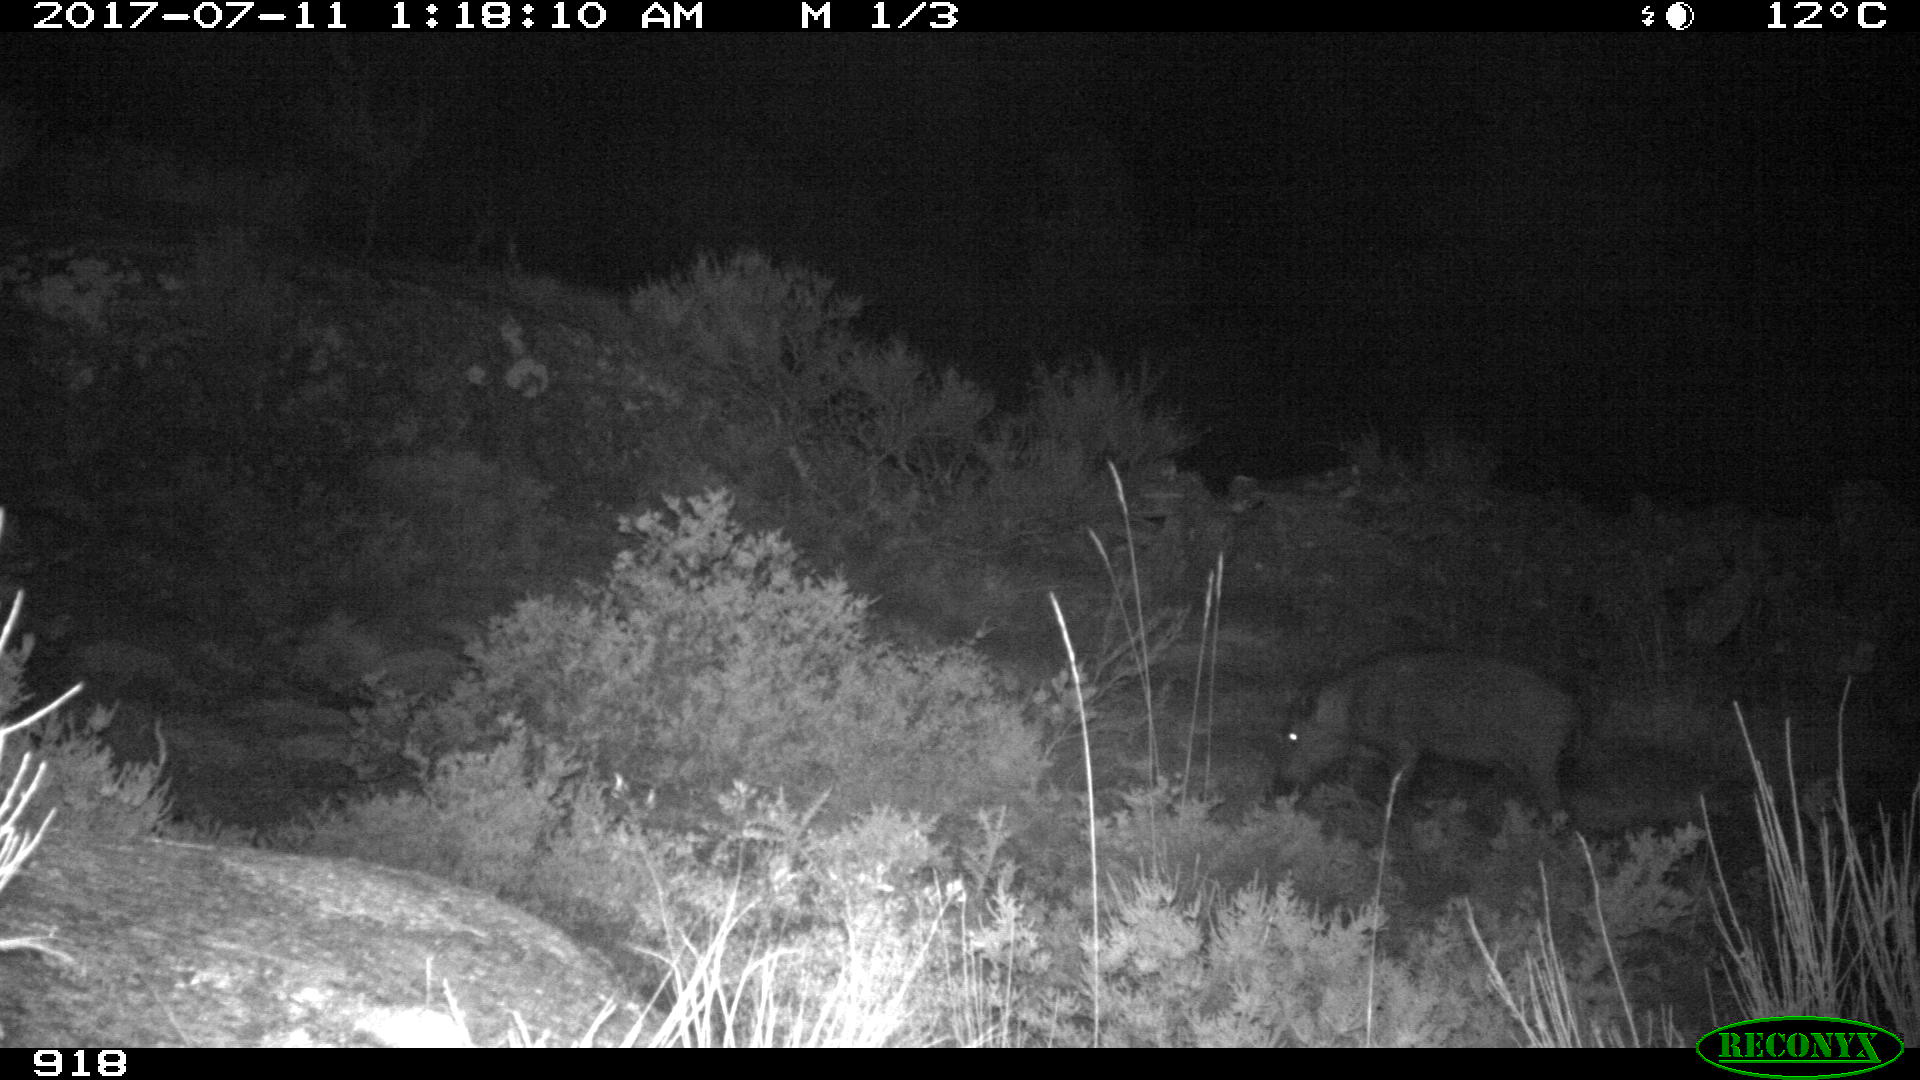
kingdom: Animalia
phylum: Chordata
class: Mammalia
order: Artiodactyla
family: Suidae
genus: Sus
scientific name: Sus scrofa
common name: Wild boar
